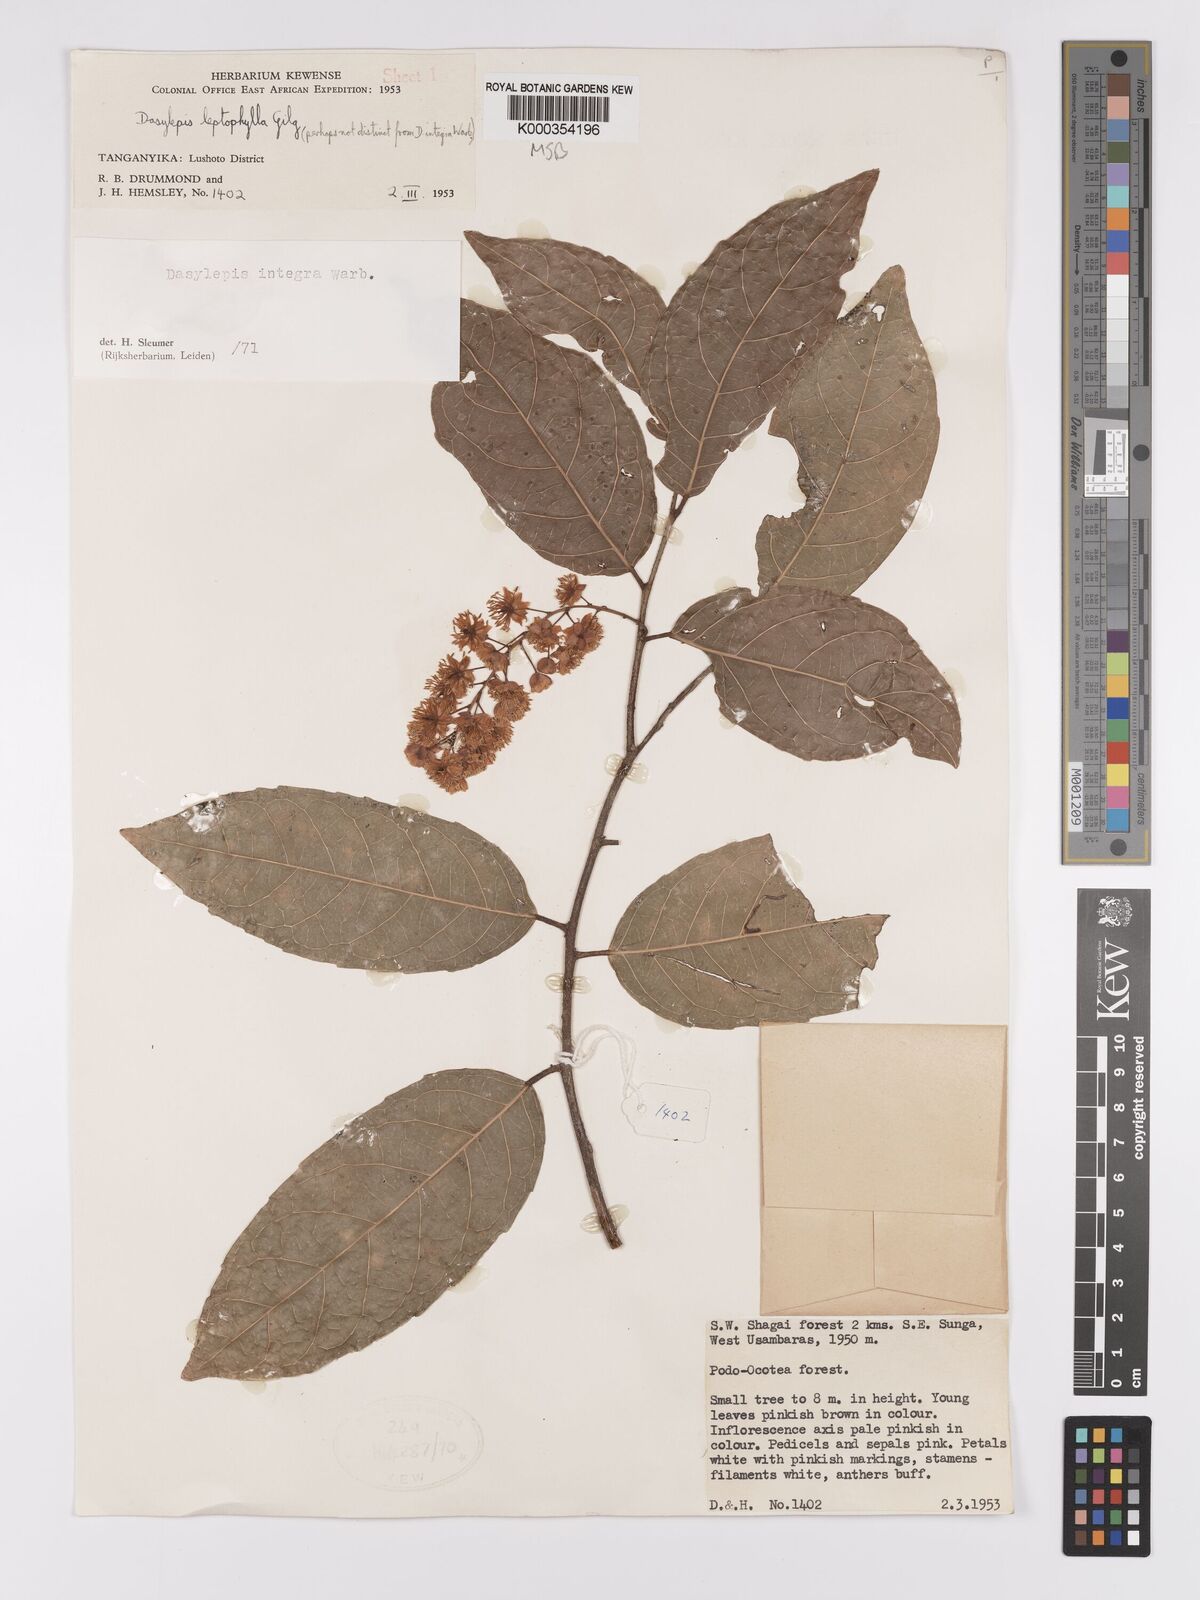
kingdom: Plantae
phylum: Tracheophyta
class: Magnoliopsida
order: Malpighiales
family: Achariaceae
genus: Dasylepis
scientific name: Dasylepis integra
